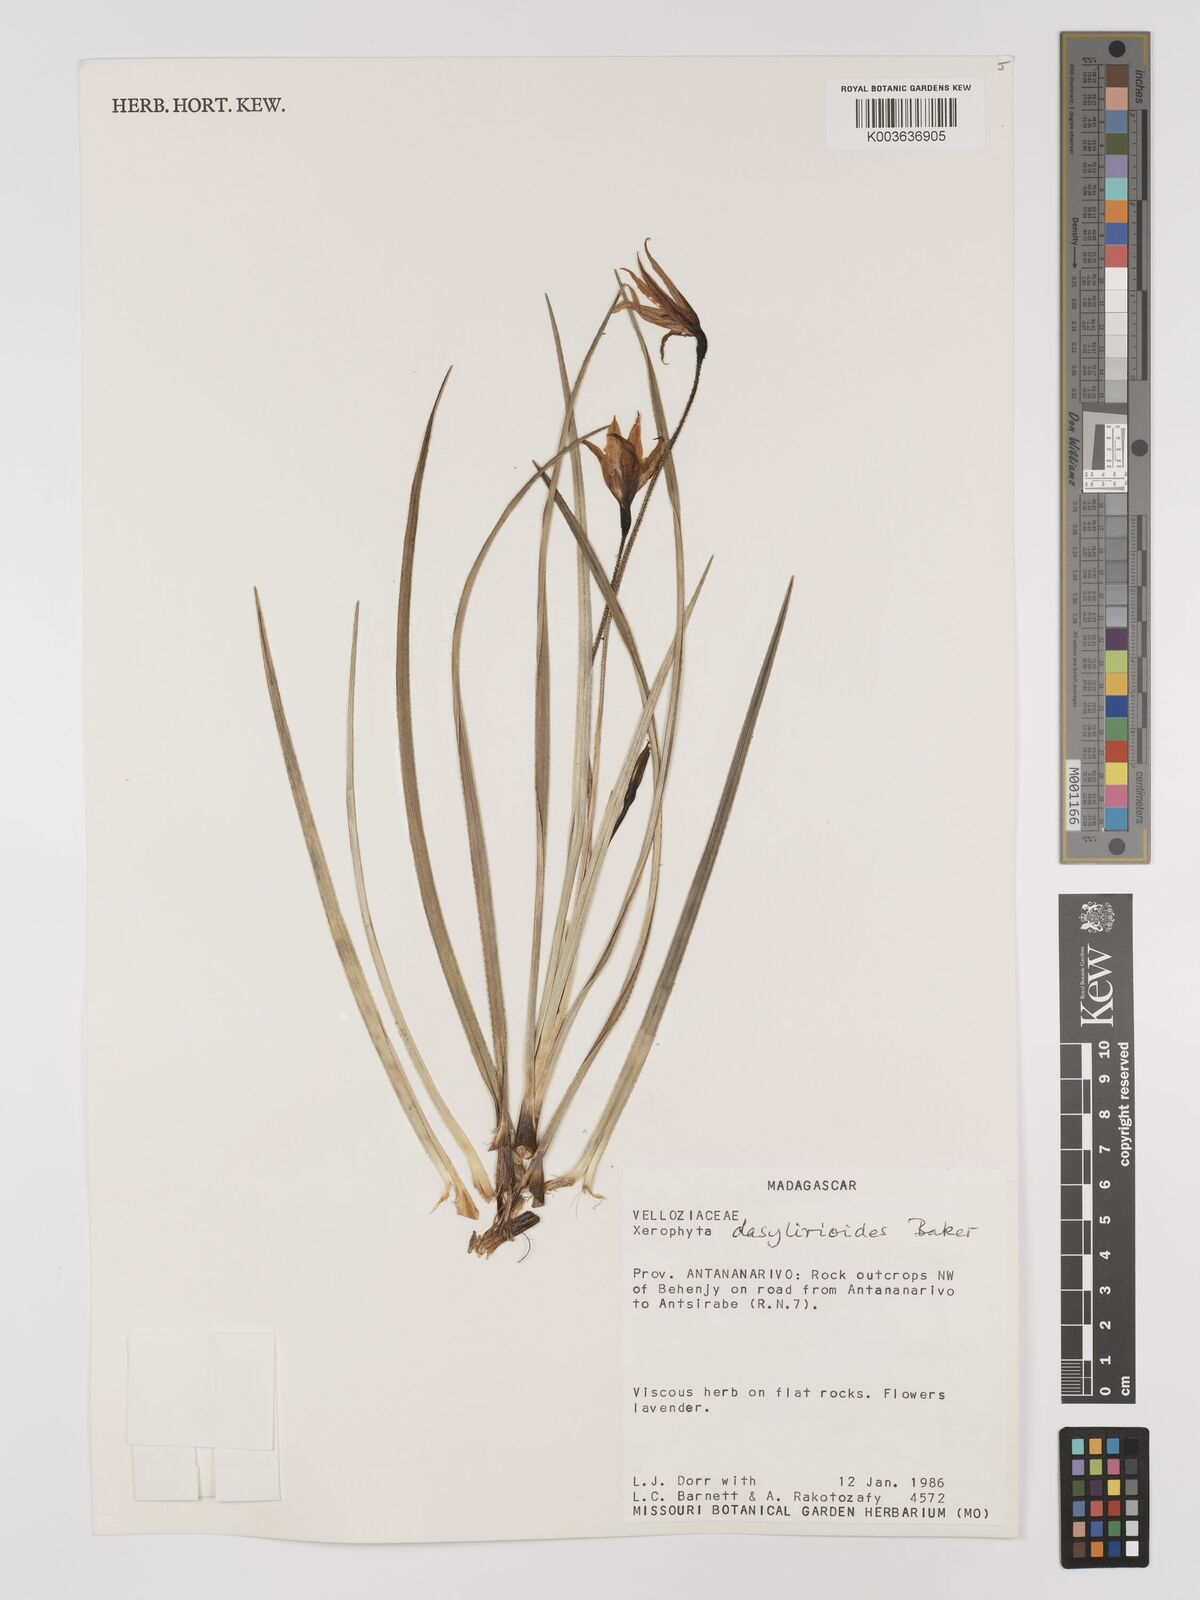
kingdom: Plantae
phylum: Tracheophyta
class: Liliopsida
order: Pandanales
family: Velloziaceae
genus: Xerophyta
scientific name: Xerophyta dasylirioides
